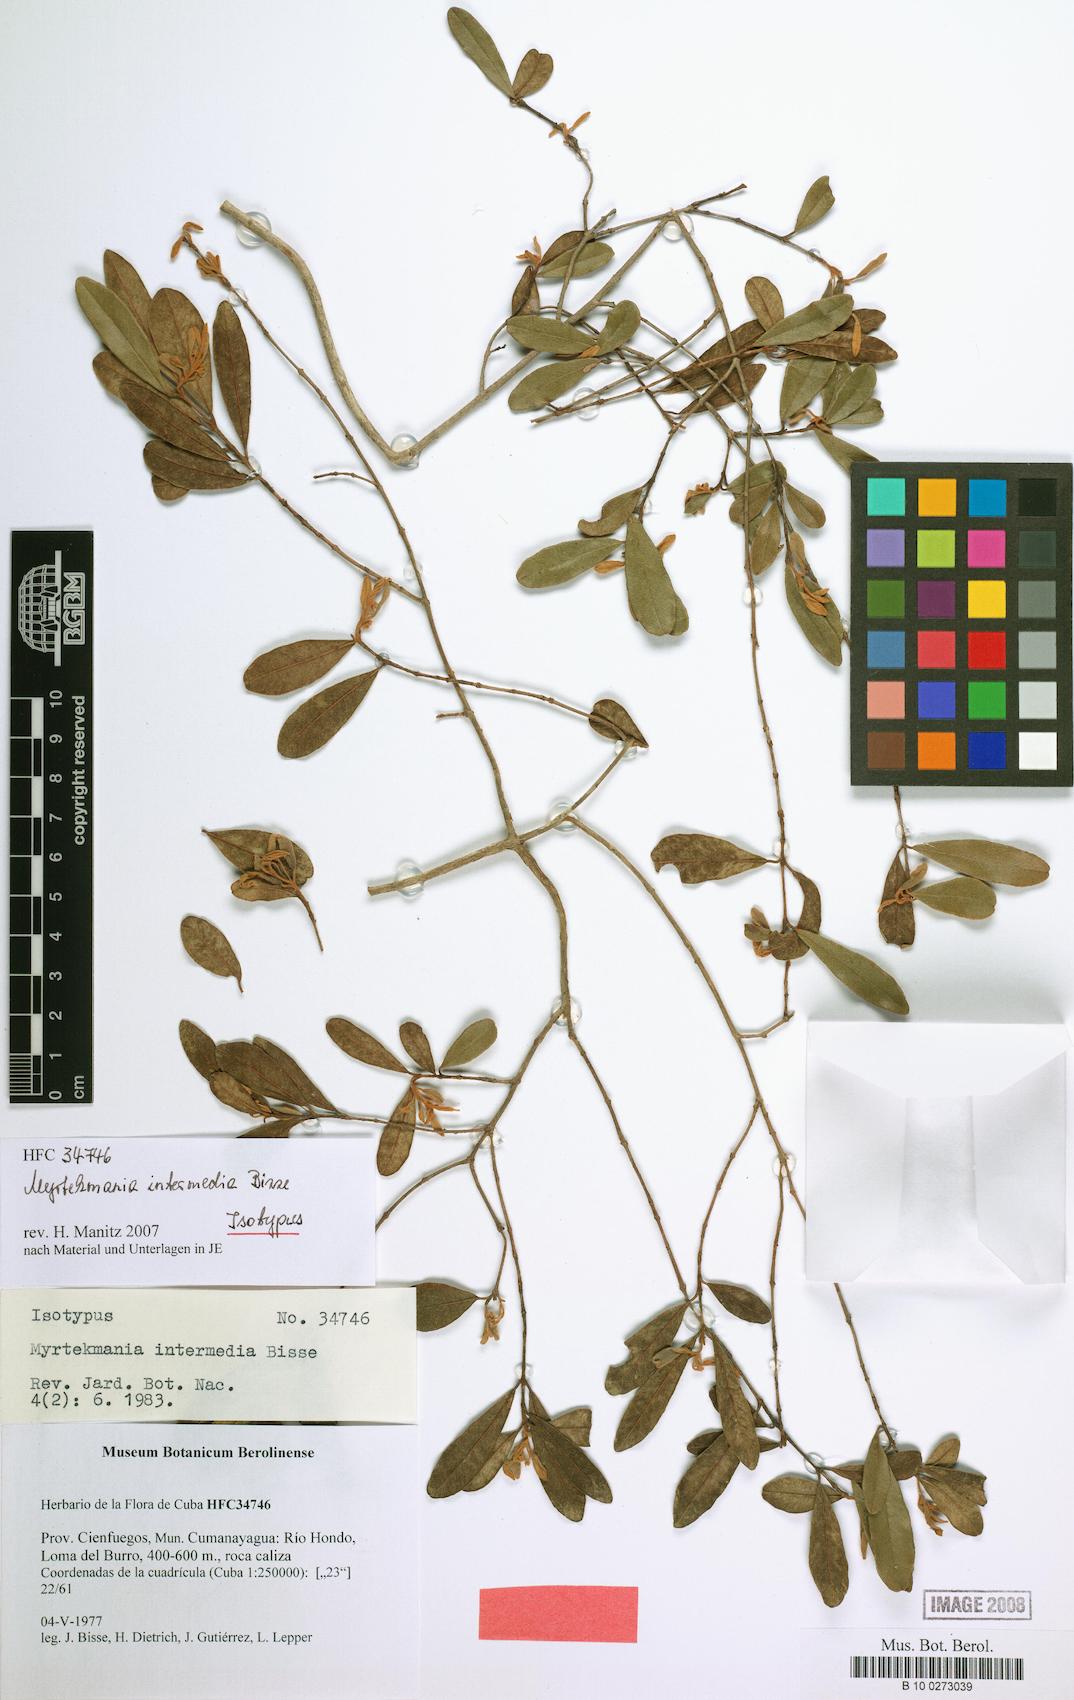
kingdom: Plantae
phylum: Tracheophyta
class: Magnoliopsida
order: Myrtales
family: Myrtaceae
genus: Pimenta
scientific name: Pimenta intermedia
